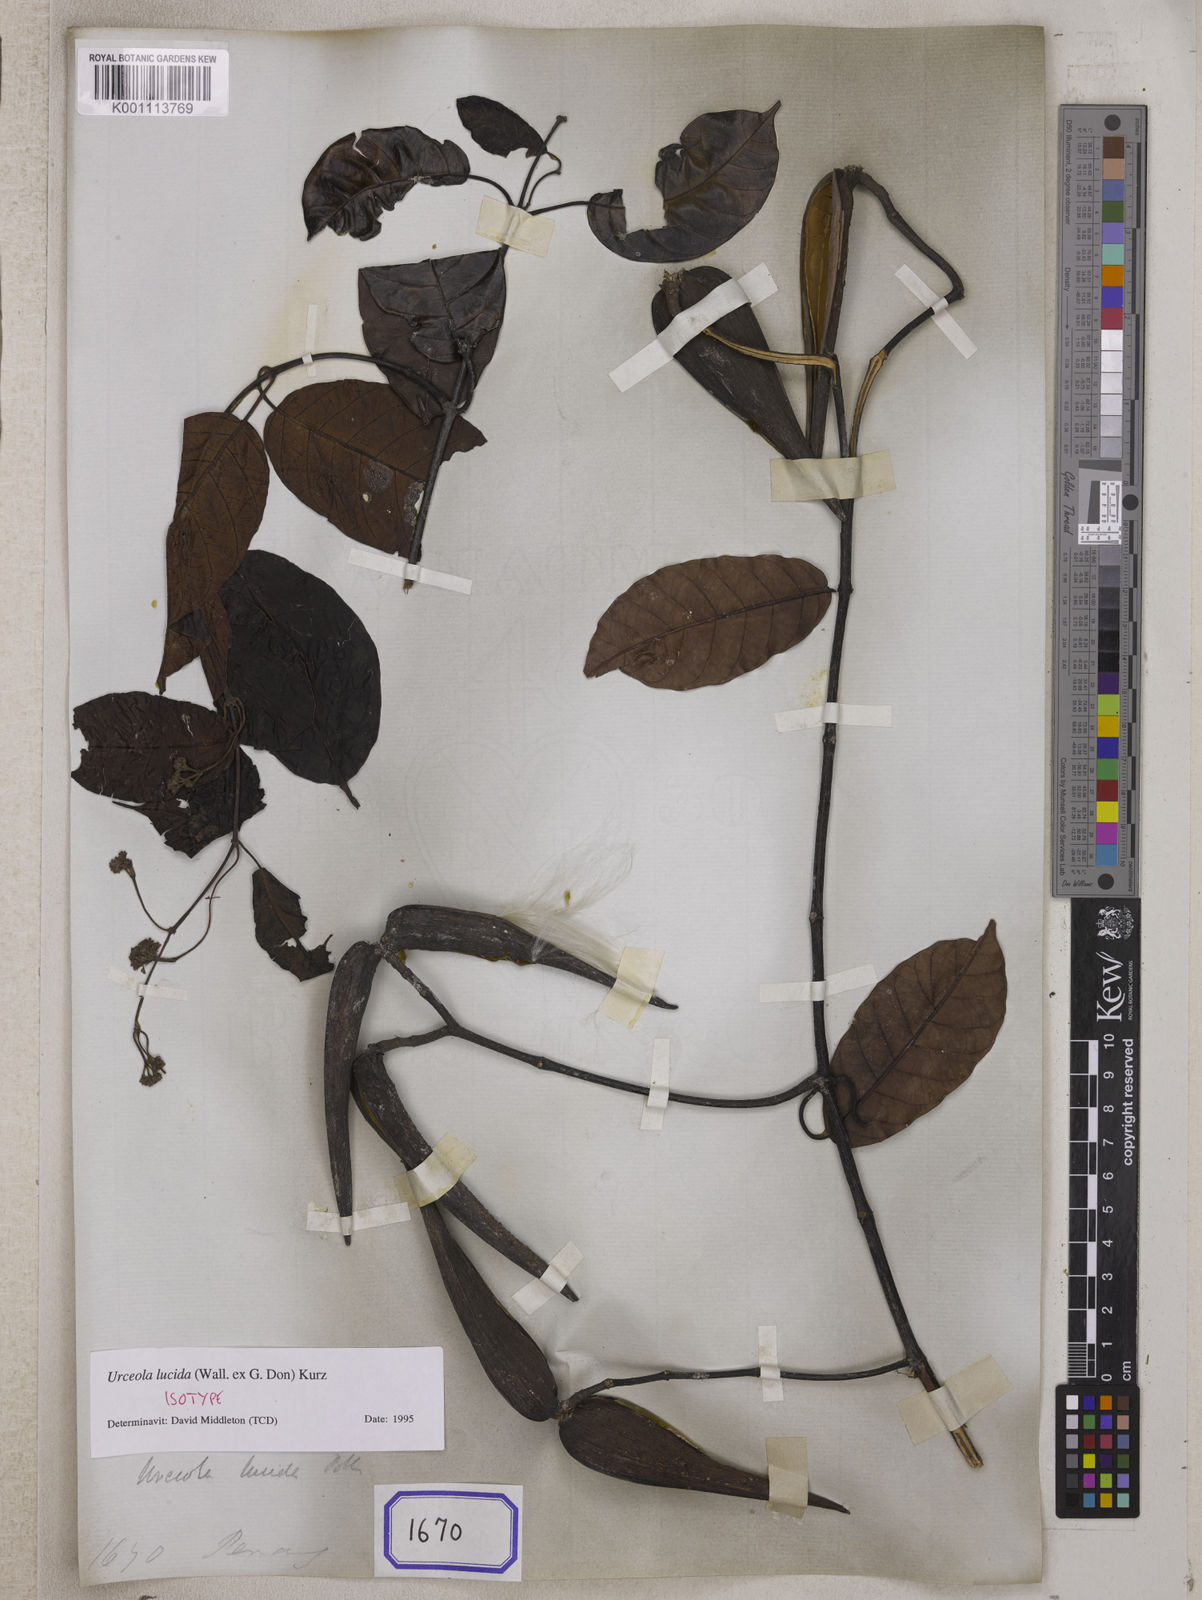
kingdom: Plantae
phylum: Tracheophyta
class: Magnoliopsida
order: Gentianales
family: Apocynaceae
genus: Echites
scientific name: Echites
